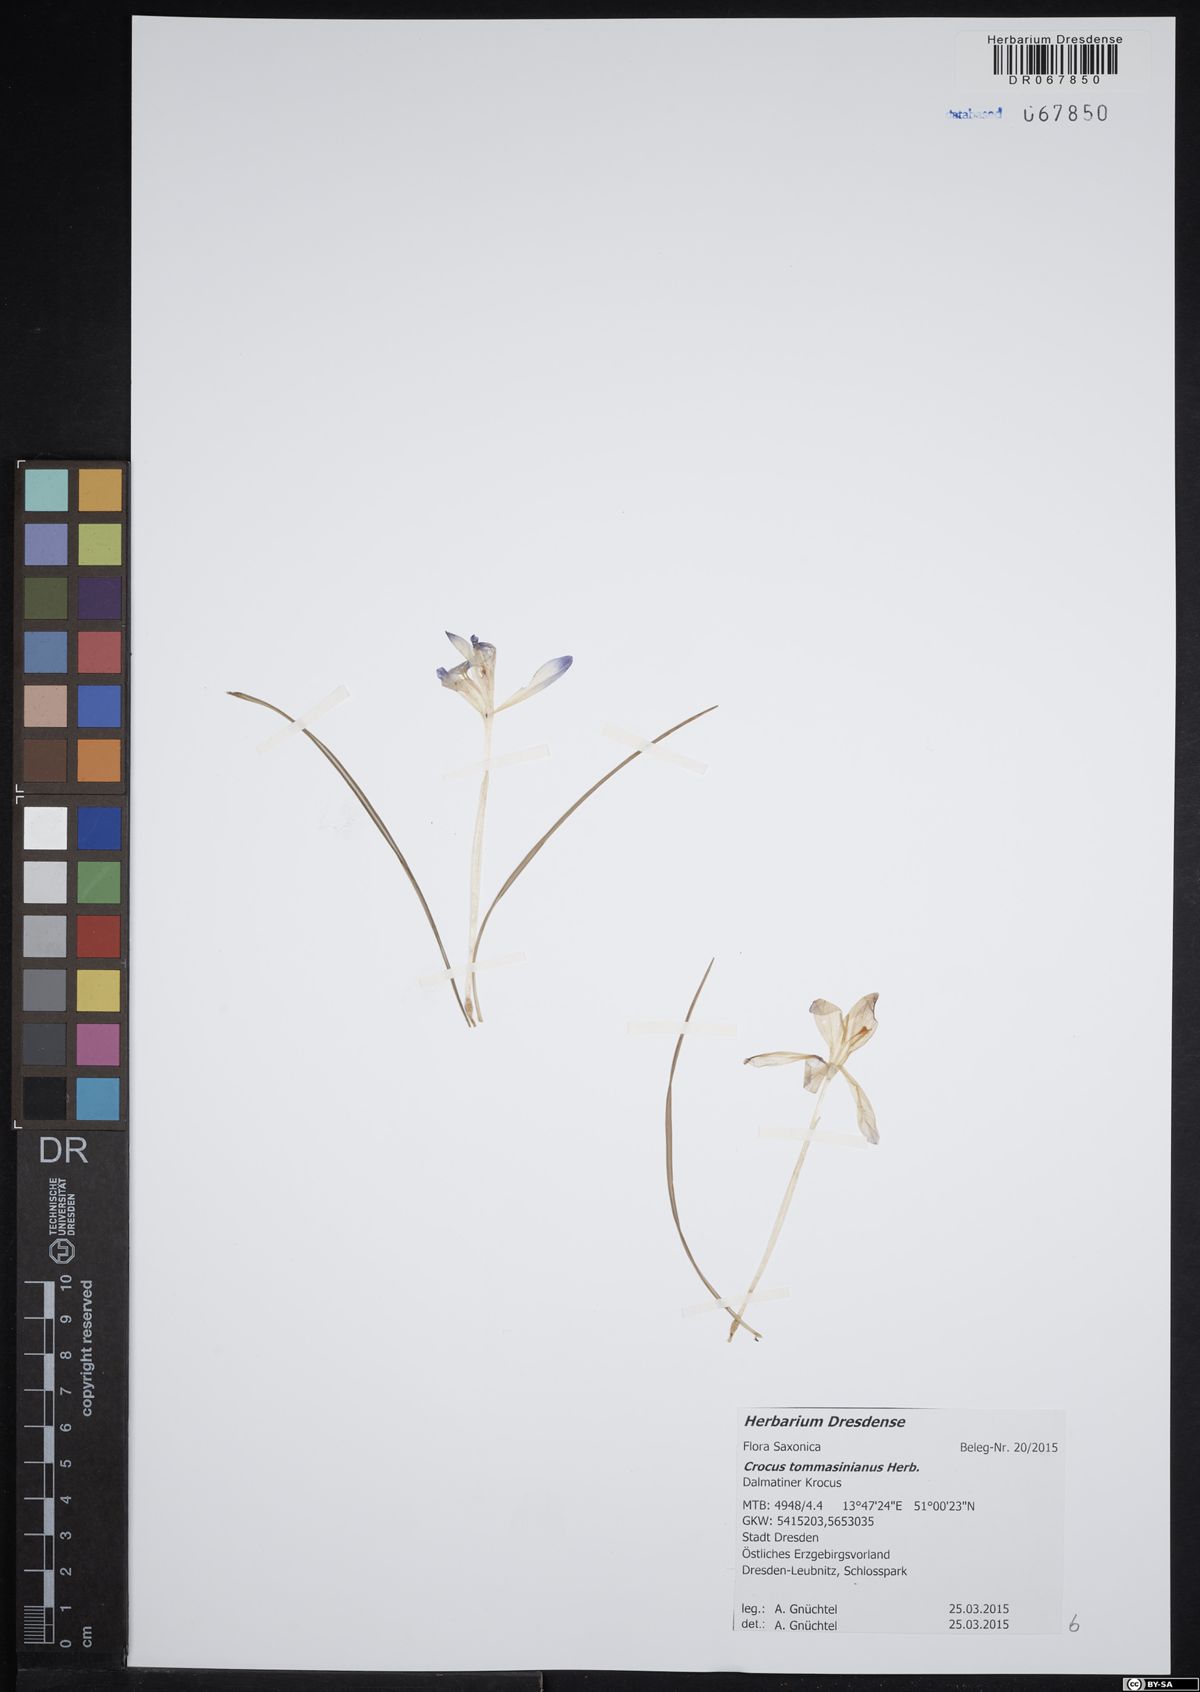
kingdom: Plantae
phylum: Tracheophyta
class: Liliopsida
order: Asparagales
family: Iridaceae
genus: Crocus
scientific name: Crocus tommasinianus
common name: Early crocus
